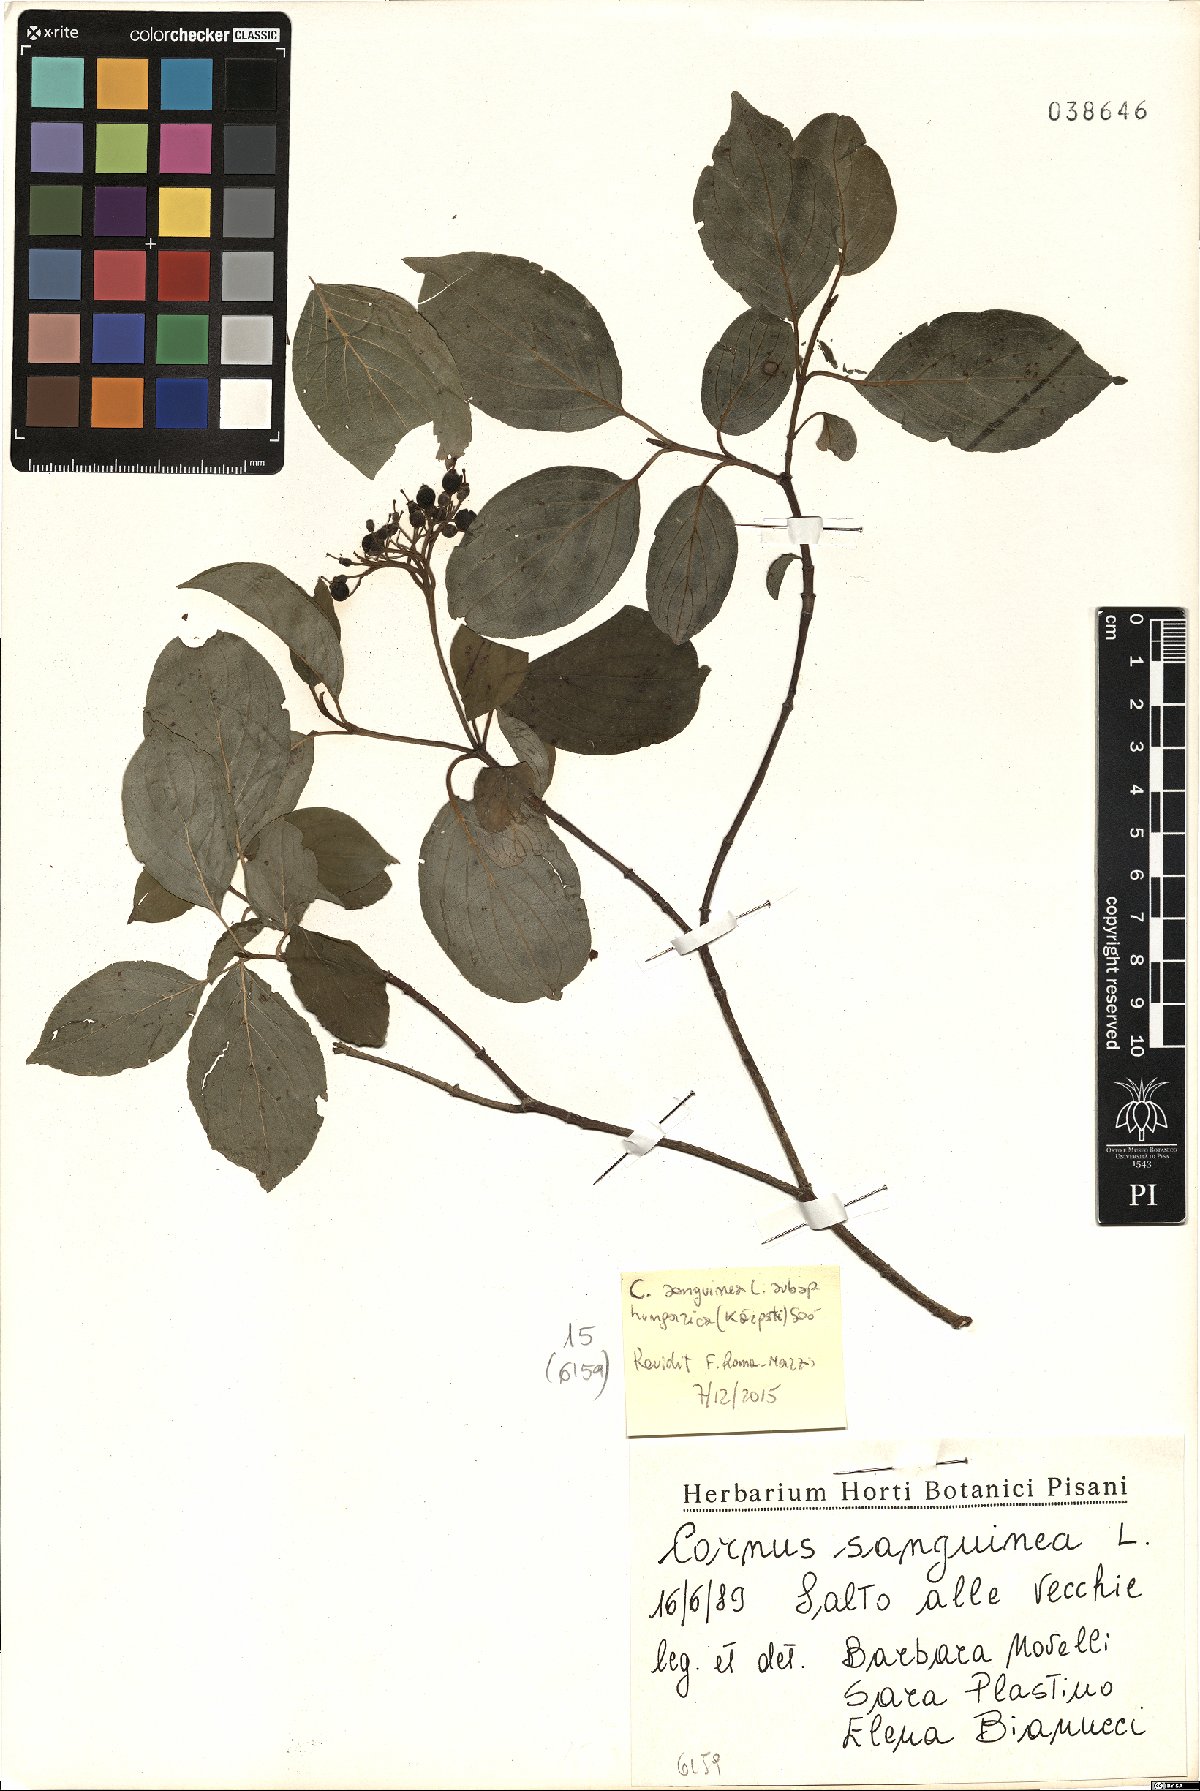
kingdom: Plantae
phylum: Tracheophyta
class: Magnoliopsida
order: Cornales
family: Cornaceae
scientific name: Cornaceae
